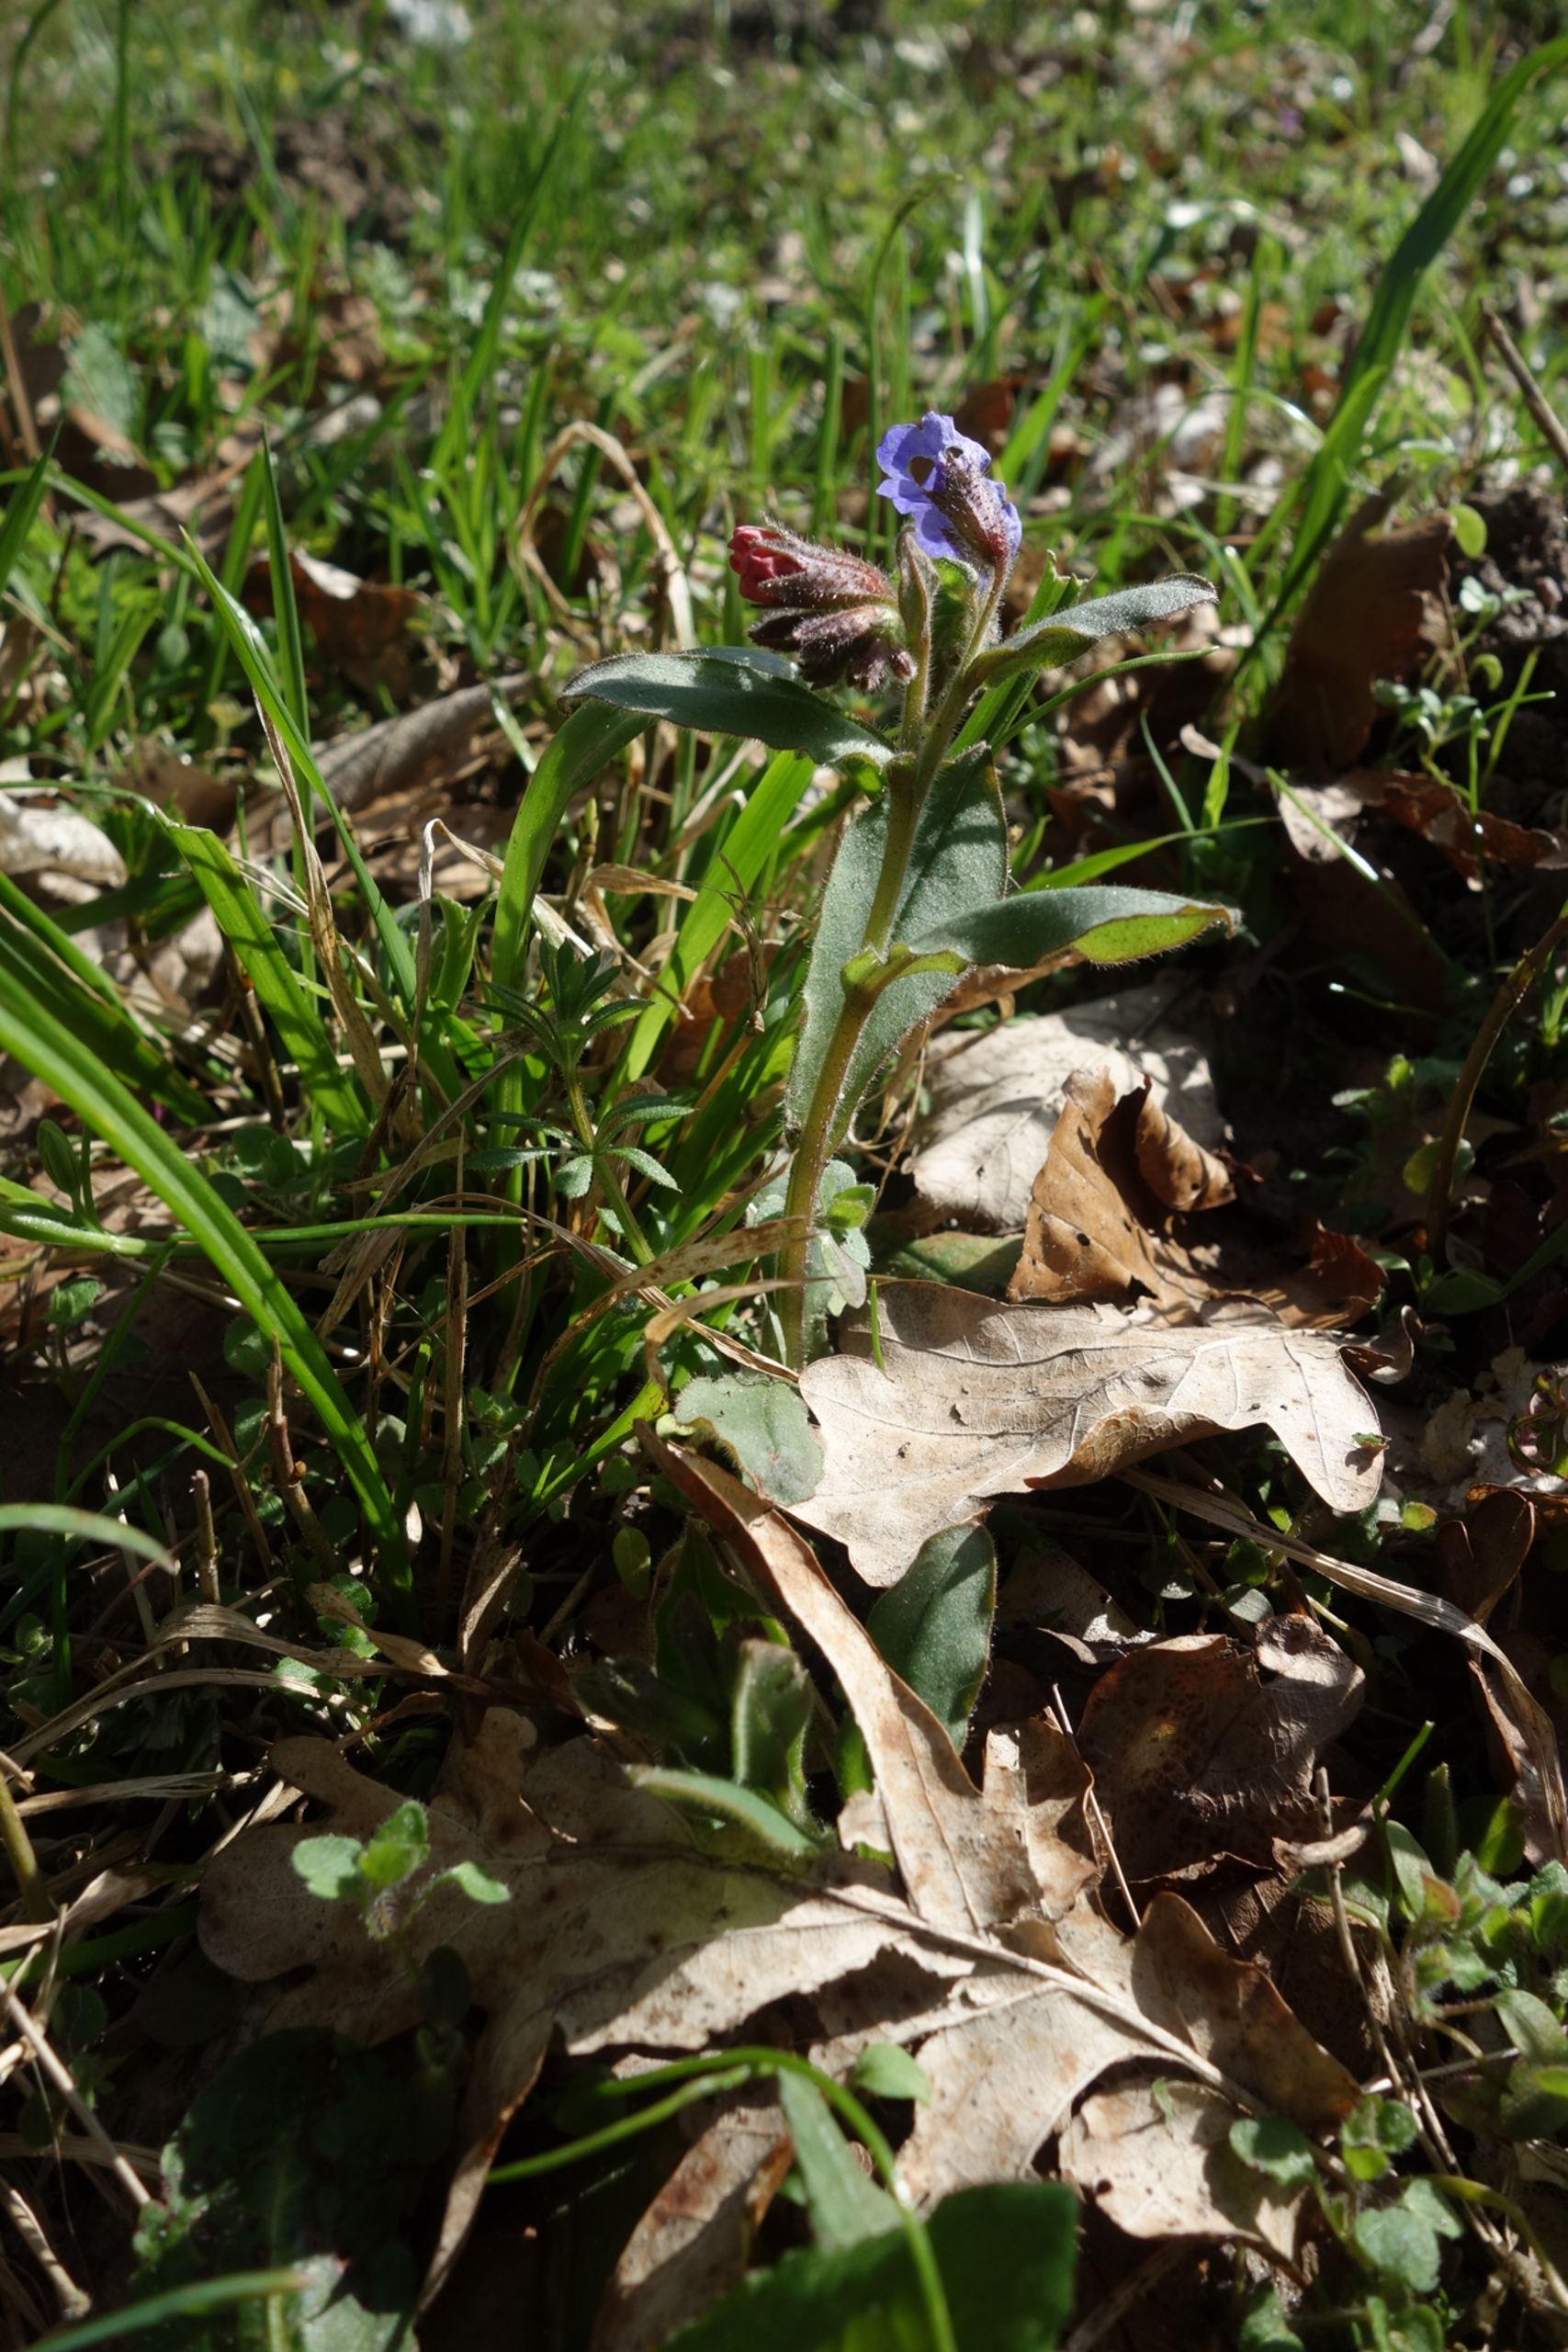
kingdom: Plantae
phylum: Tracheophyta
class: Magnoliopsida
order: Boraginales
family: Boraginaceae
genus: Pulmonaria
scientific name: Pulmonaria obscura
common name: Almindelig lungeurt
